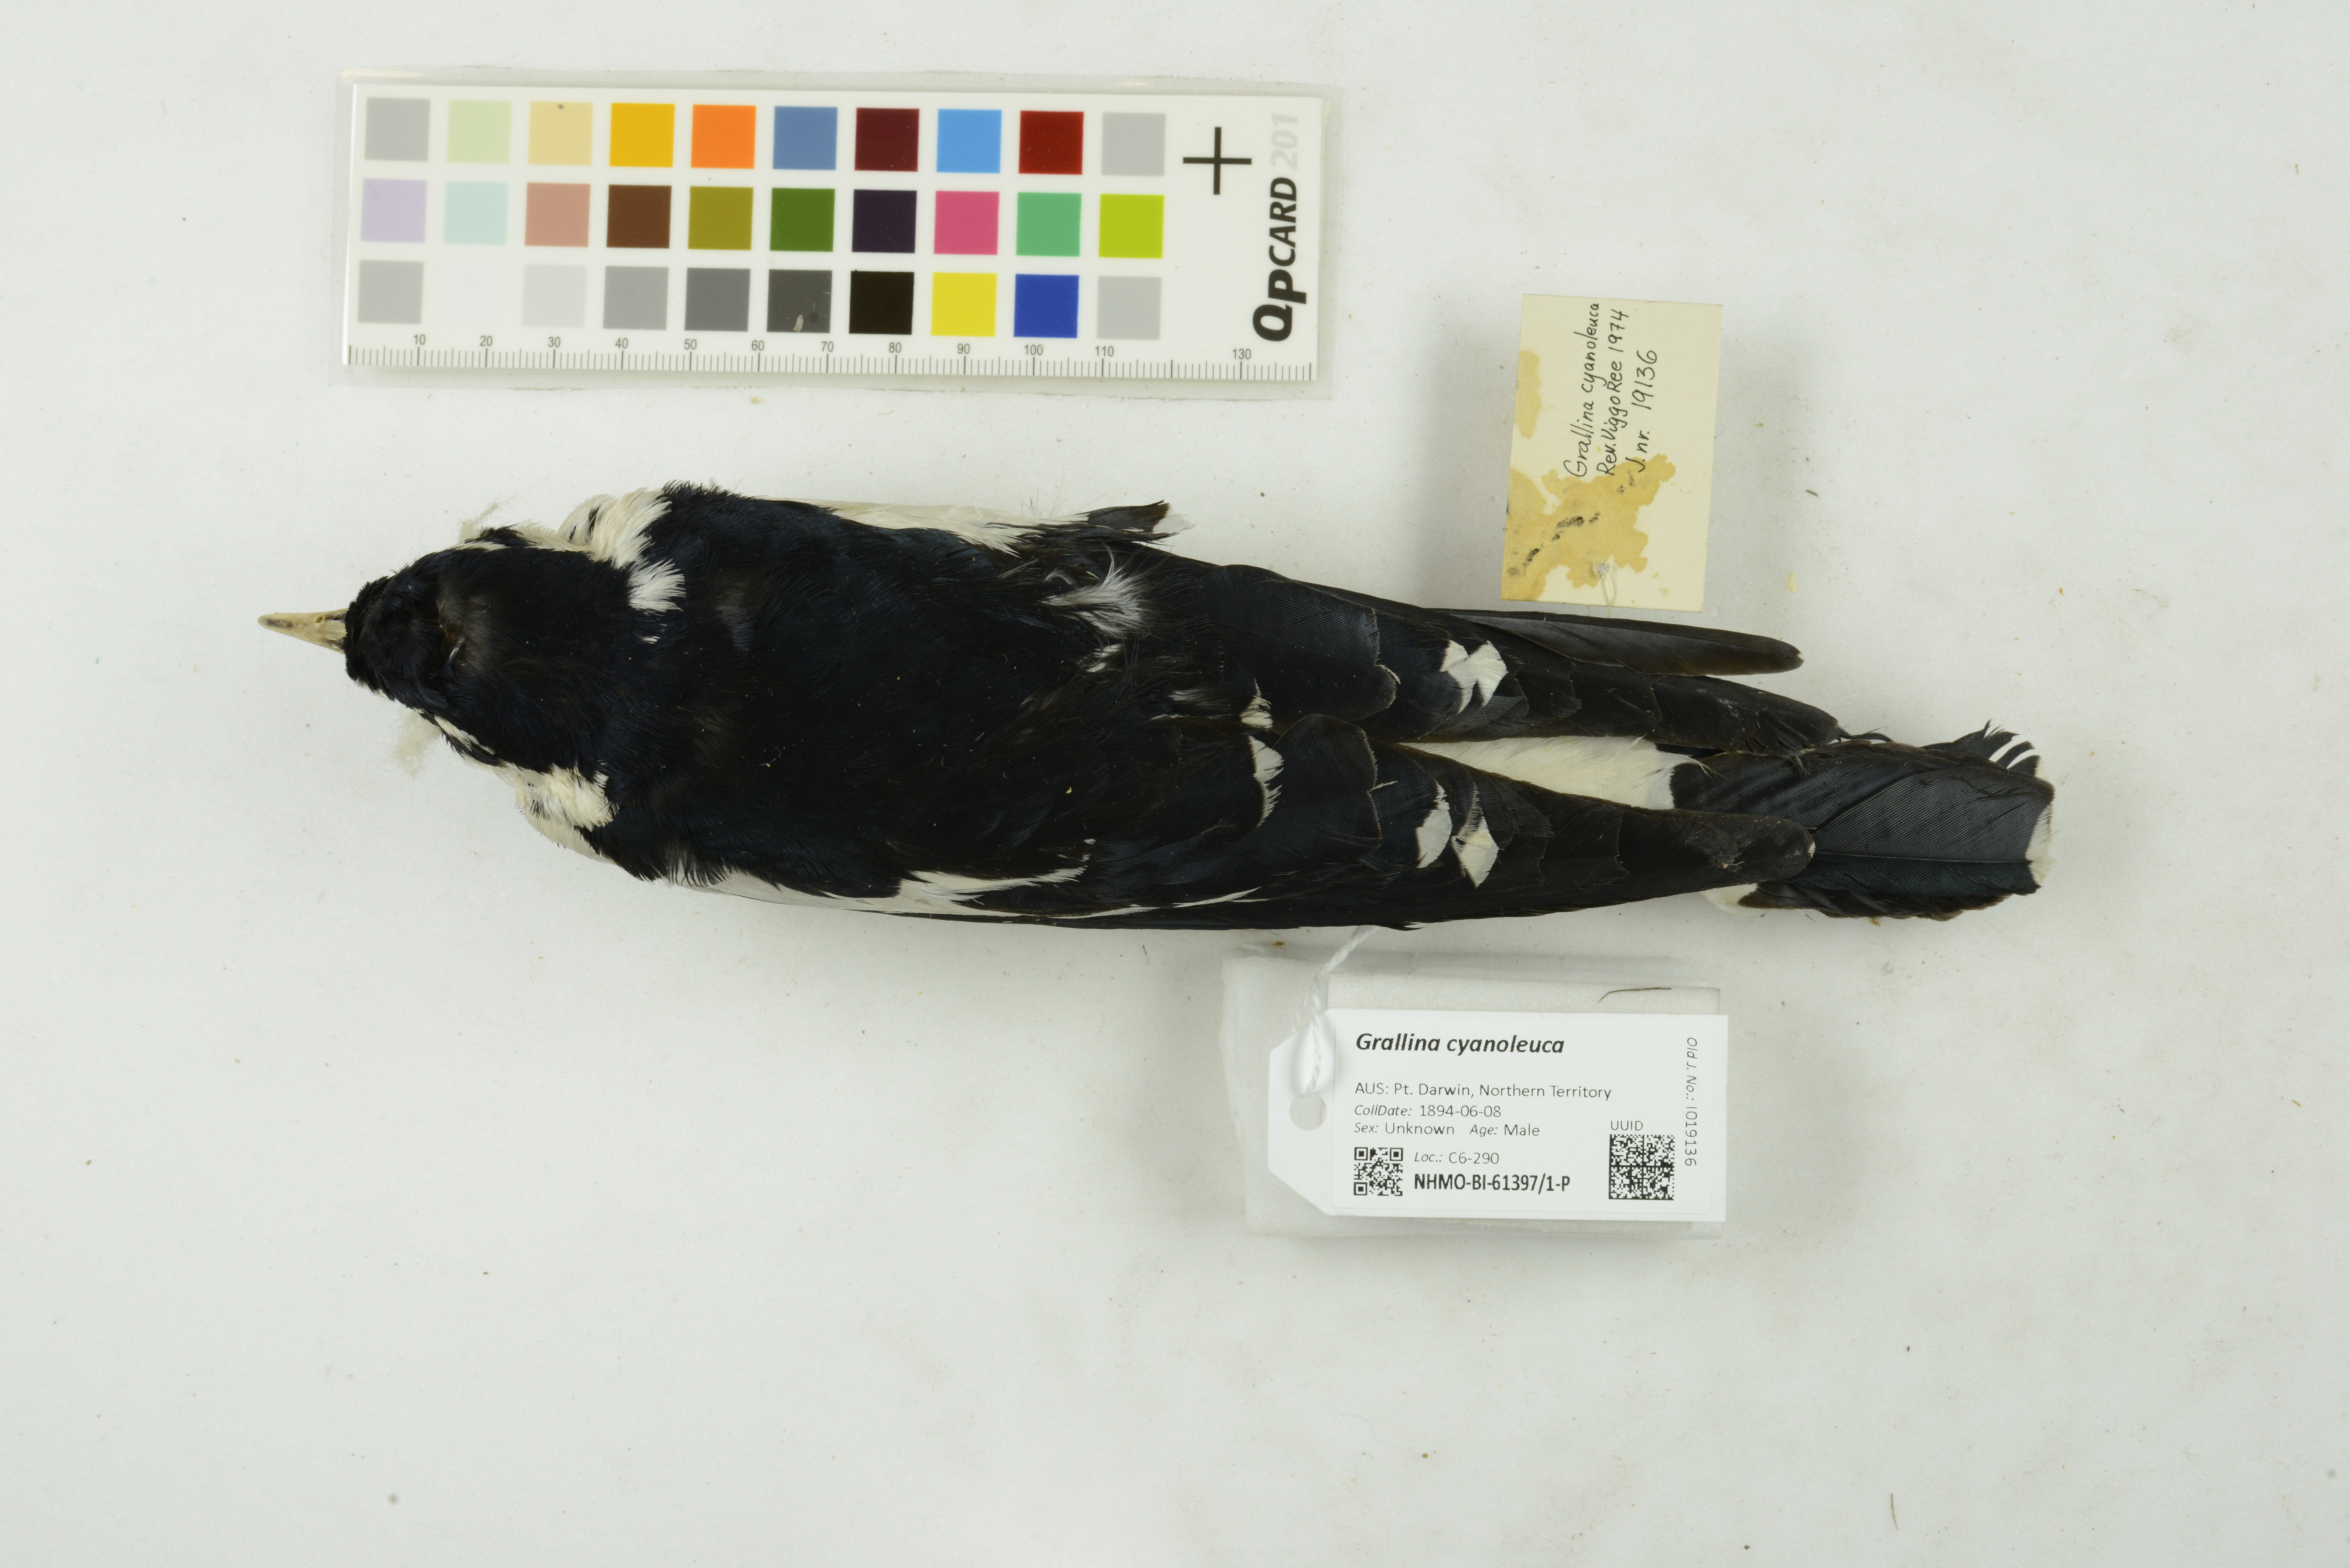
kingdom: Animalia
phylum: Chordata
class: Aves
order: Passeriformes
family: Monarchidae
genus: Grallina
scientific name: Grallina cyanoleuca
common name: Magpie-lark
